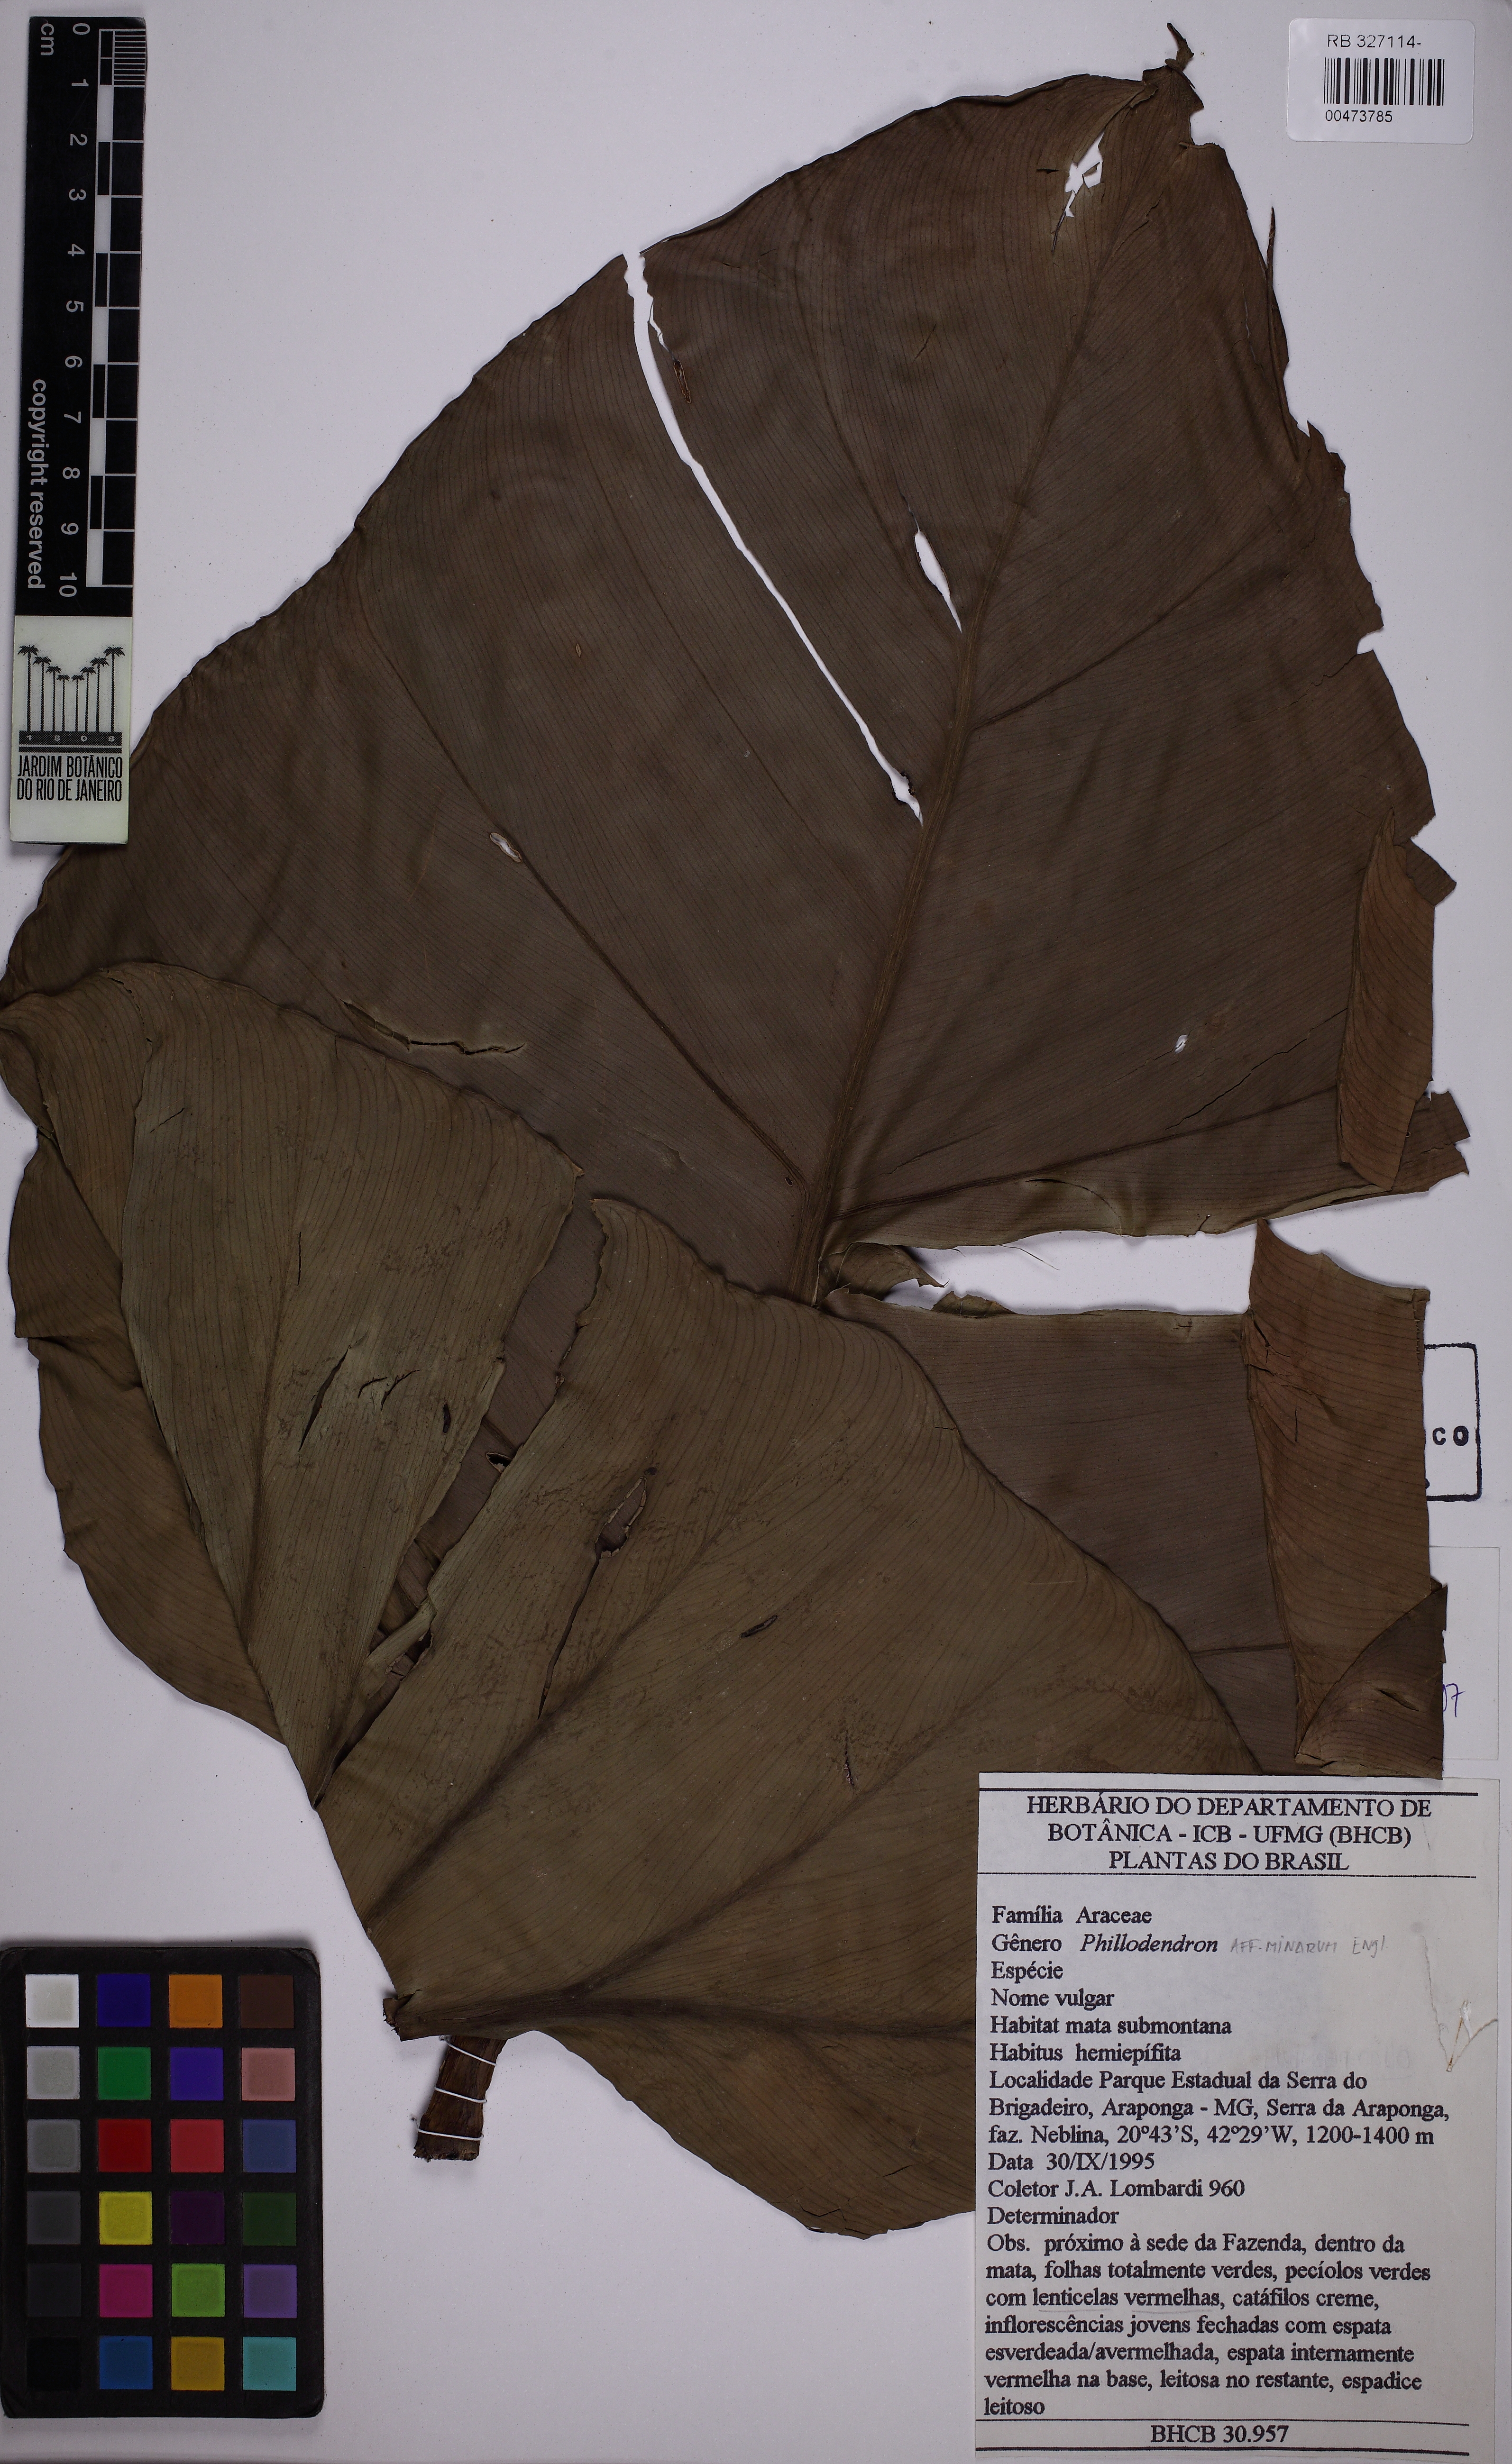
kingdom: Plantae
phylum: Tracheophyta
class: Liliopsida
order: Alismatales
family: Araceae
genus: Philodendron
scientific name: Philodendron minarum
